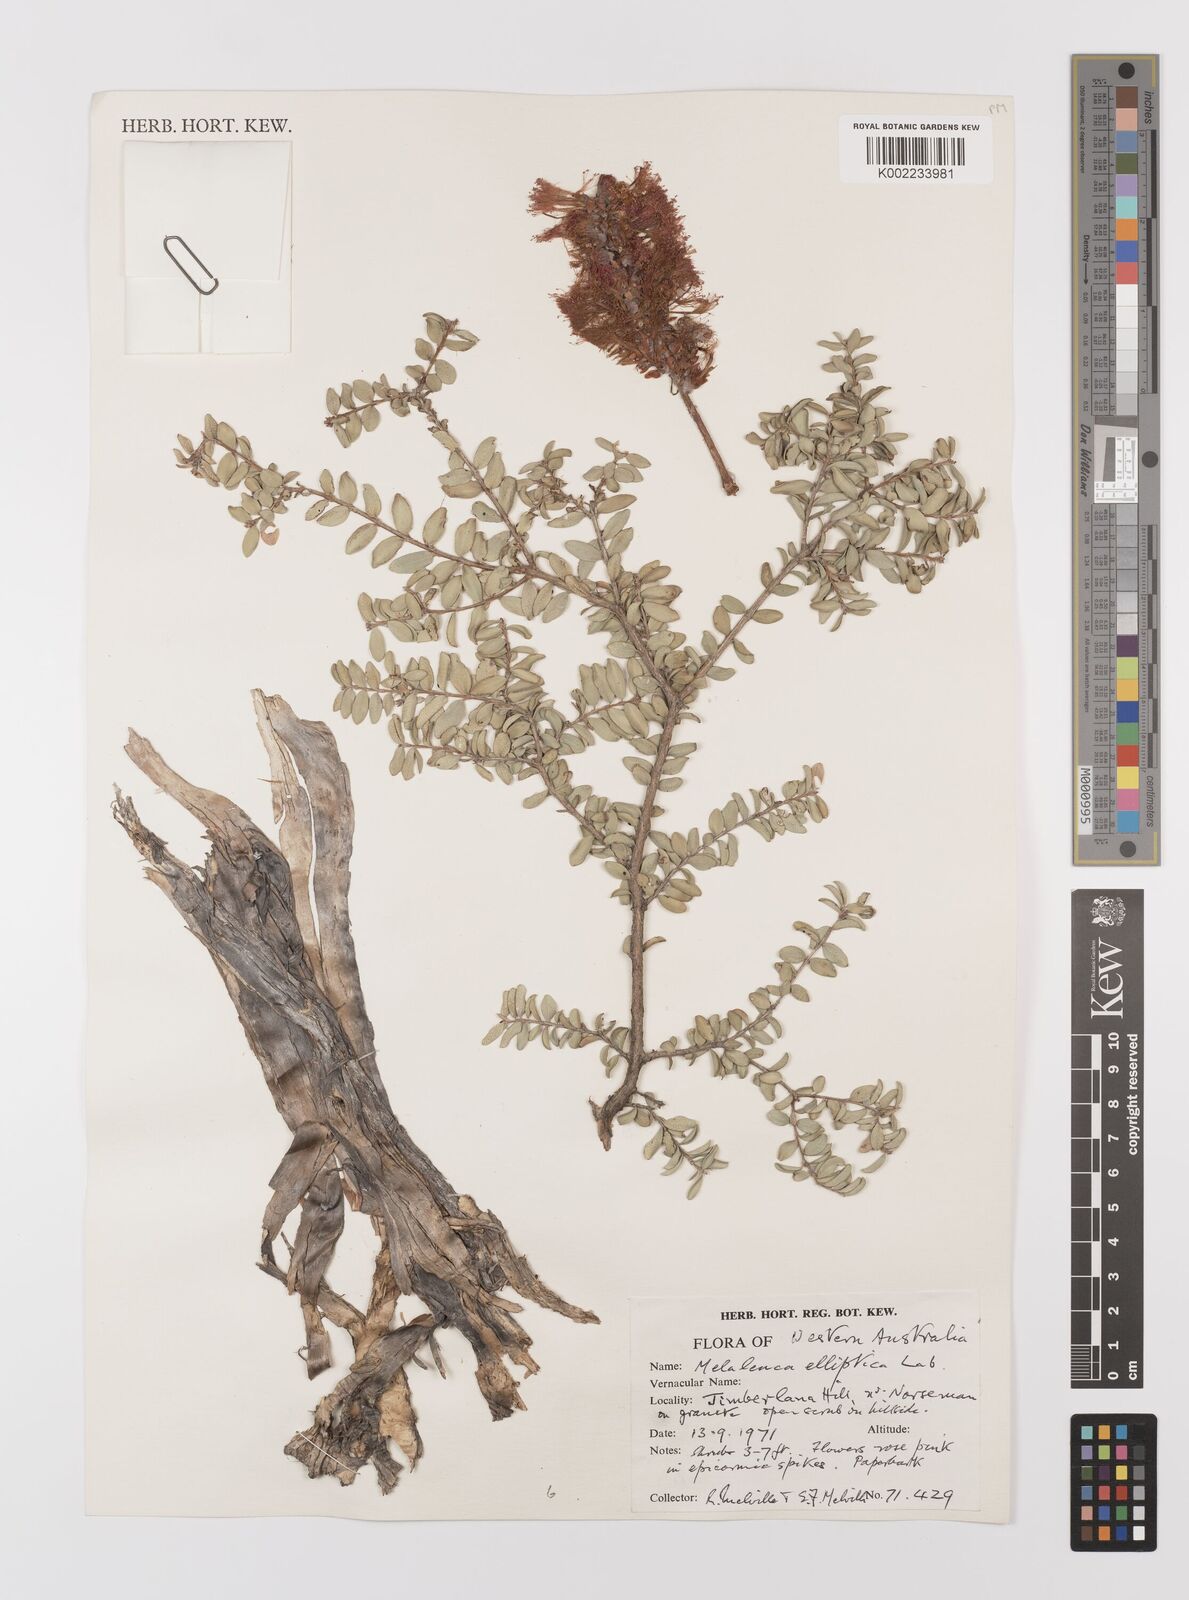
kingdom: Plantae
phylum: Tracheophyta
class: Magnoliopsida
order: Myrtales
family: Myrtaceae
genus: Melaleuca
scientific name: Melaleuca elliptica
